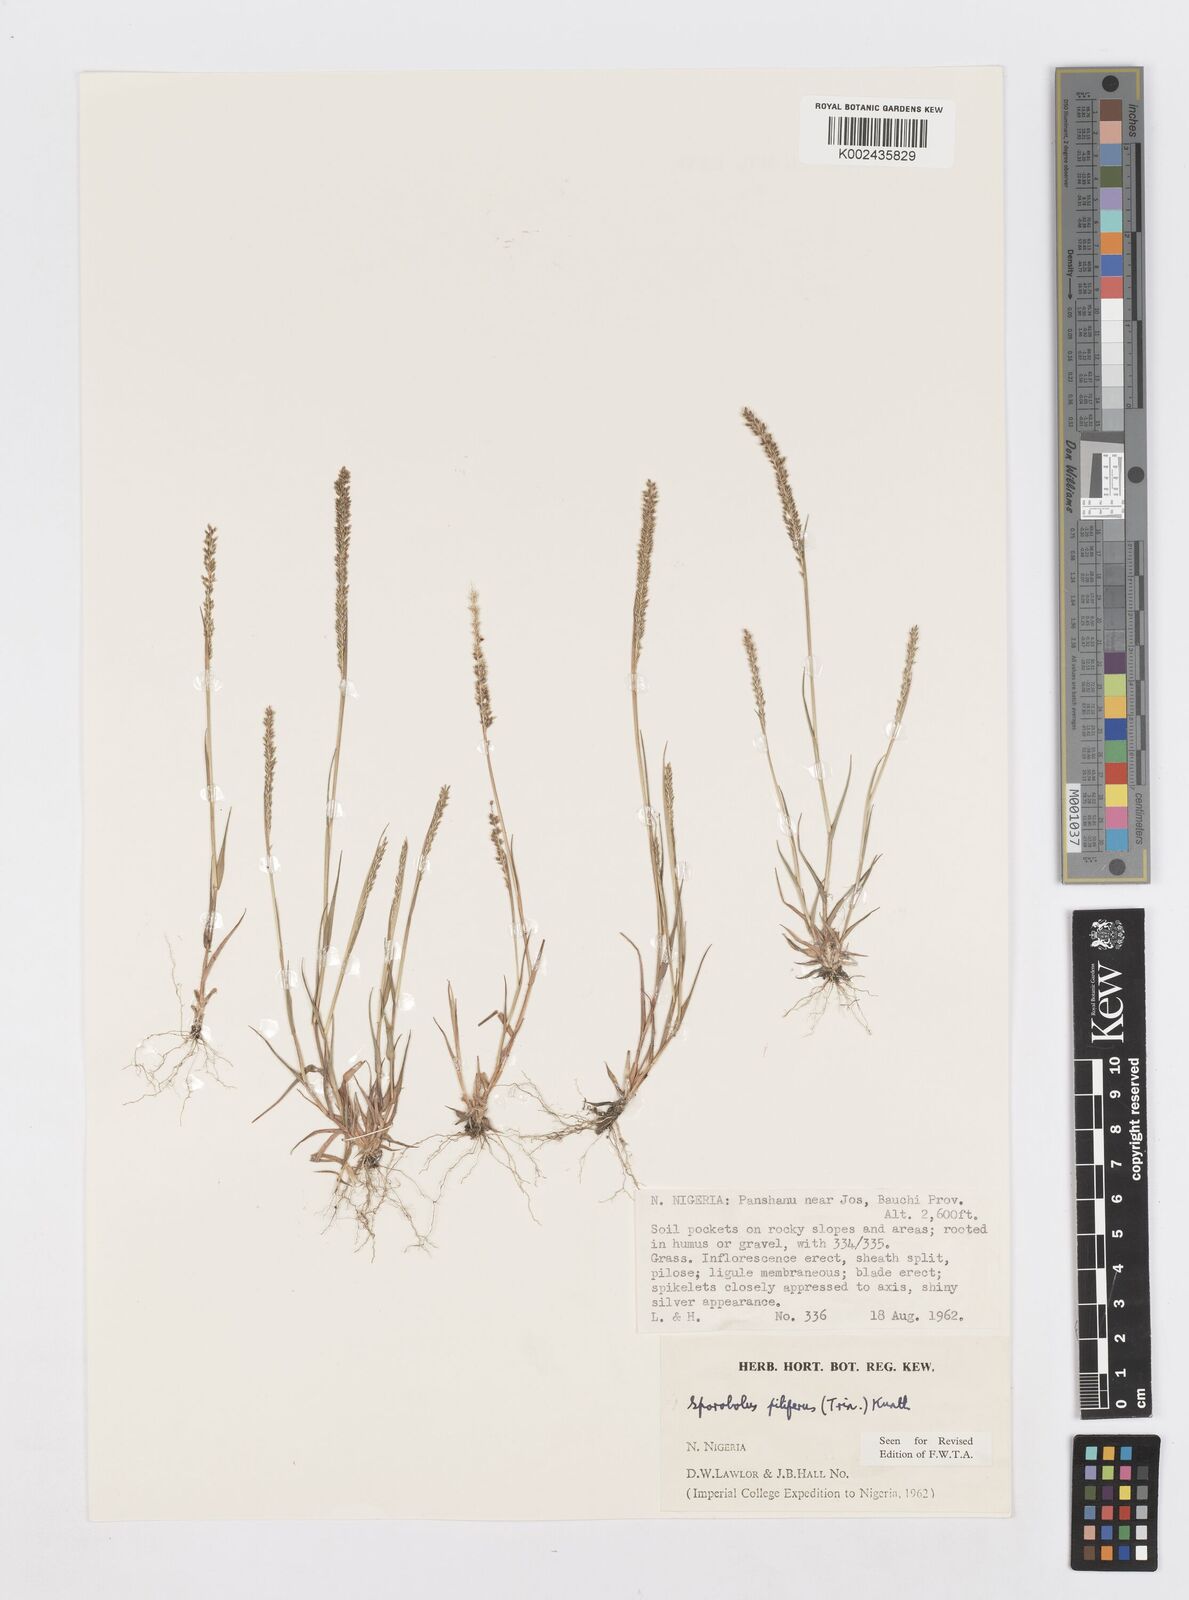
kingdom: Plantae
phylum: Tracheophyta
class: Liliopsida
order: Poales
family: Poaceae
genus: Sporobolus
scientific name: Sporobolus pilifer
